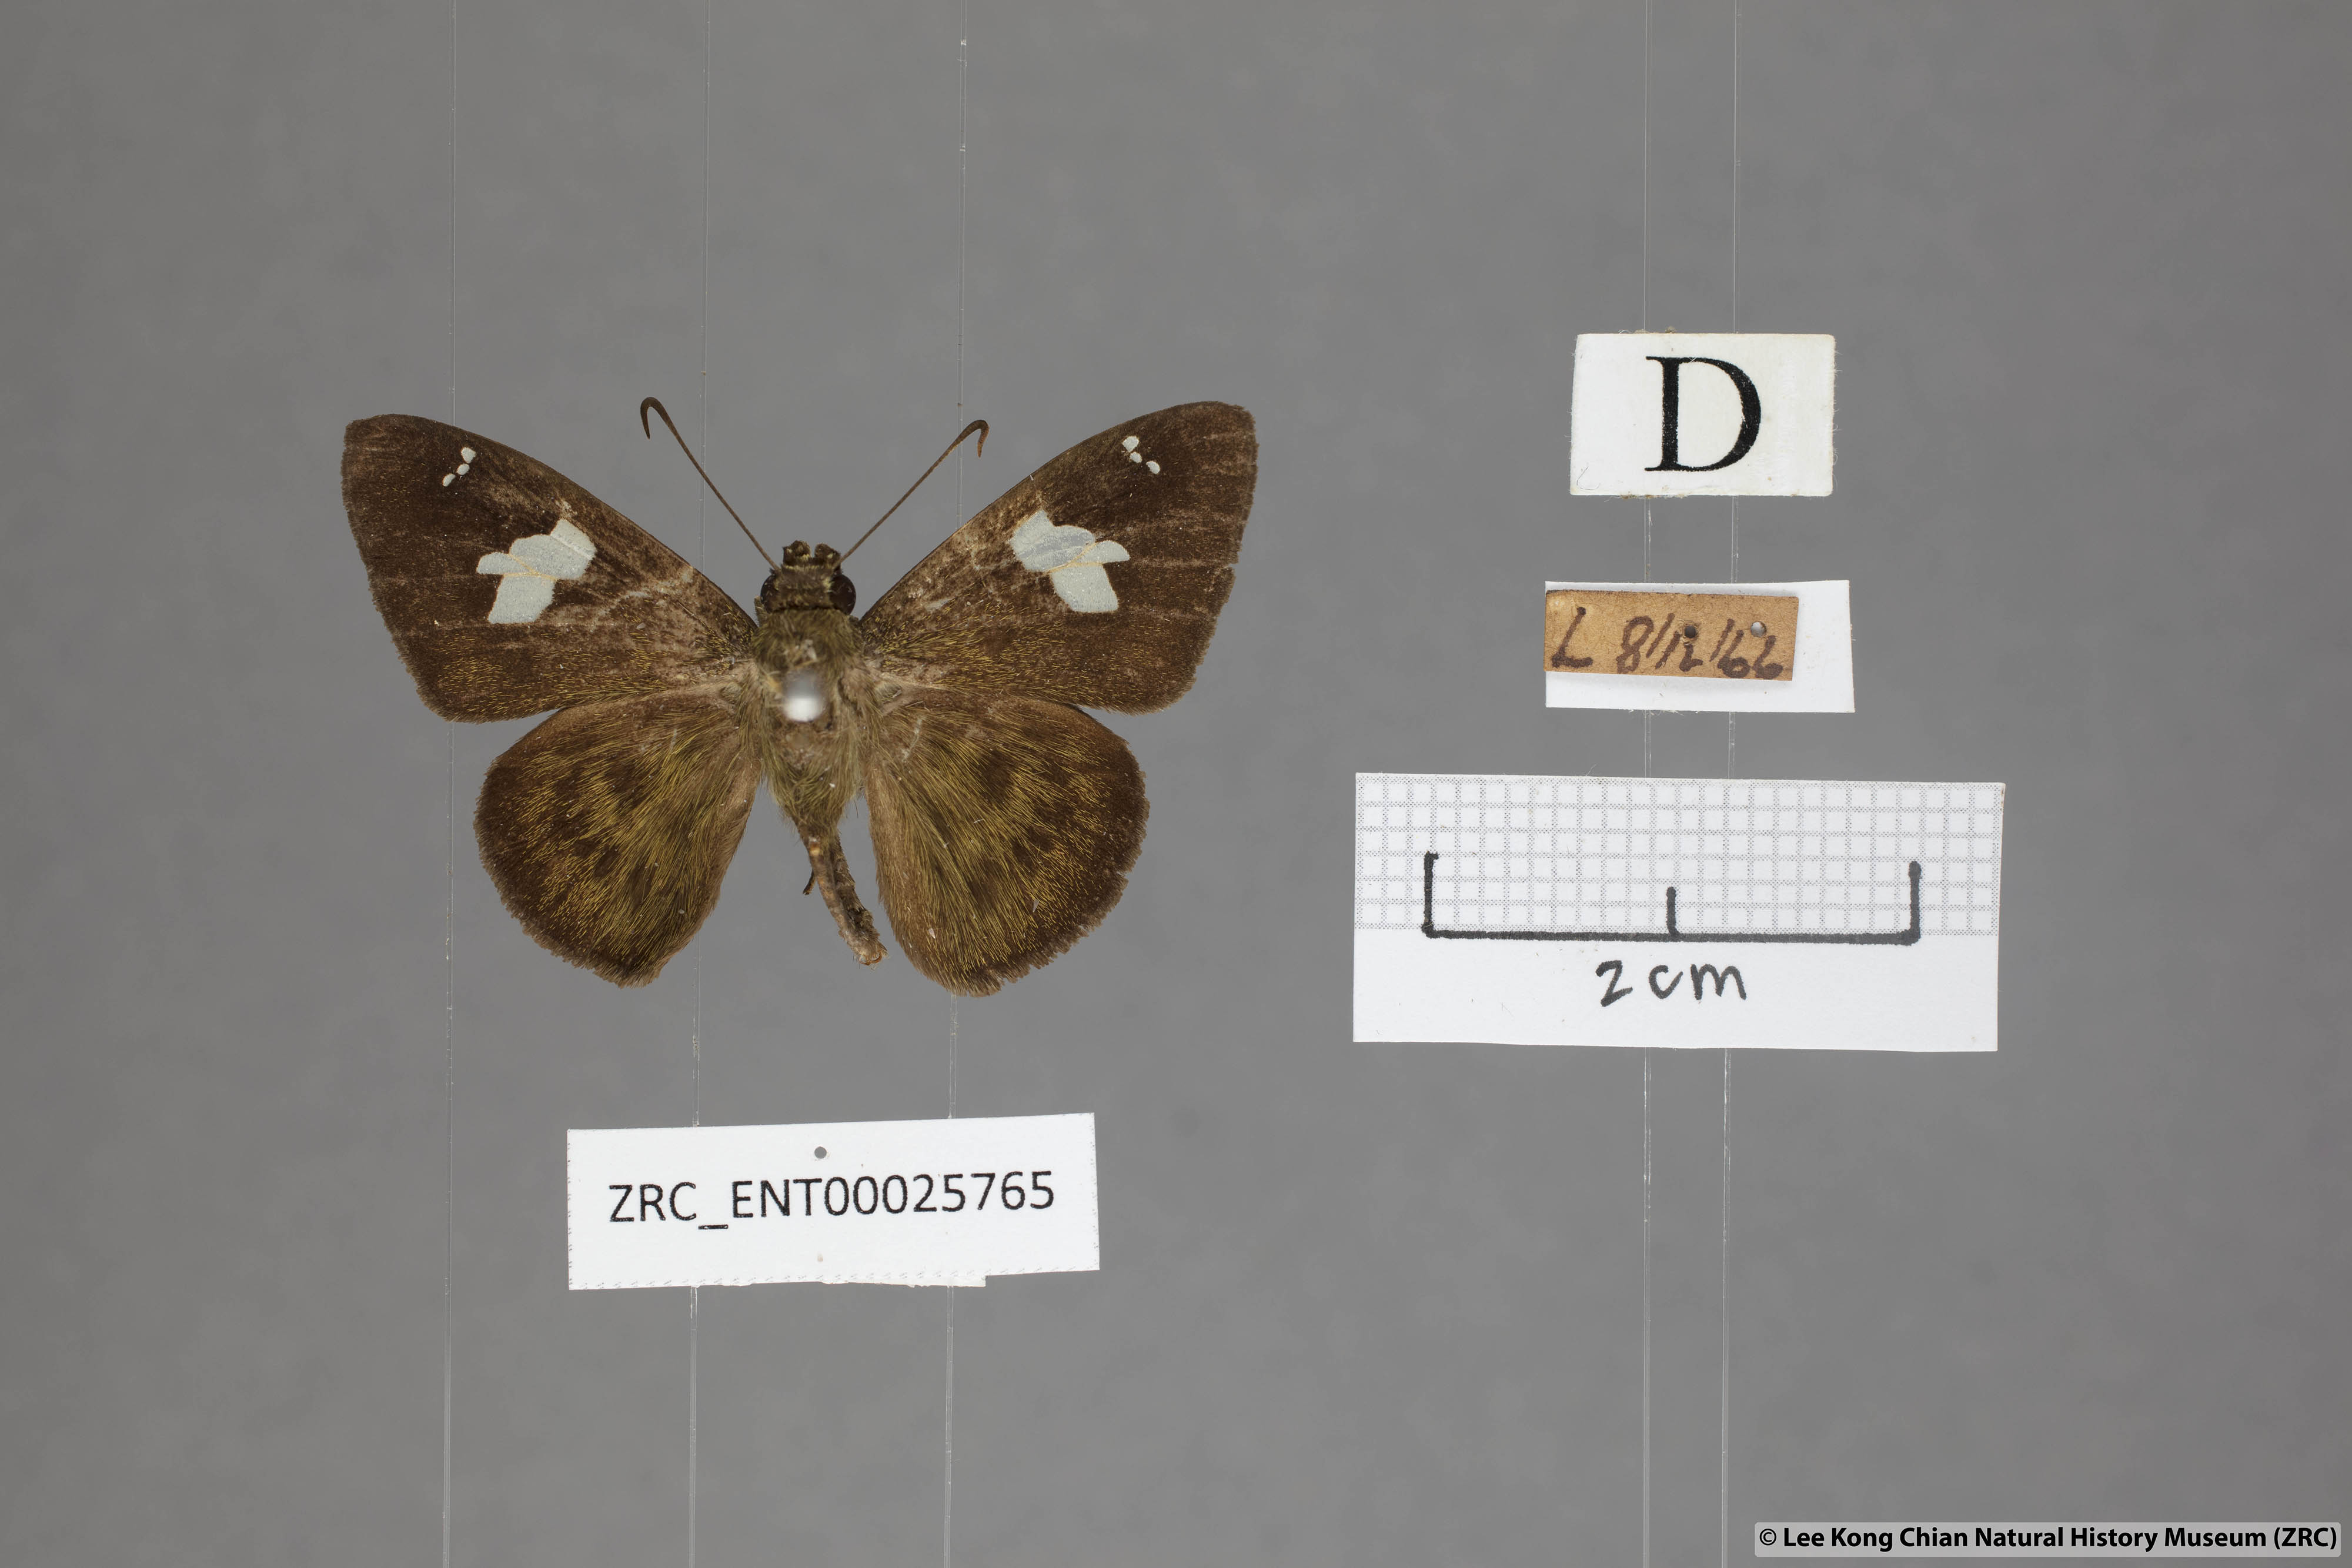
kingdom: Animalia
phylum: Arthropoda
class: Insecta
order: Lepidoptera
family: Hesperiidae
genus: Celaenorrhinus
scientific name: Celaenorrhinus asmara
